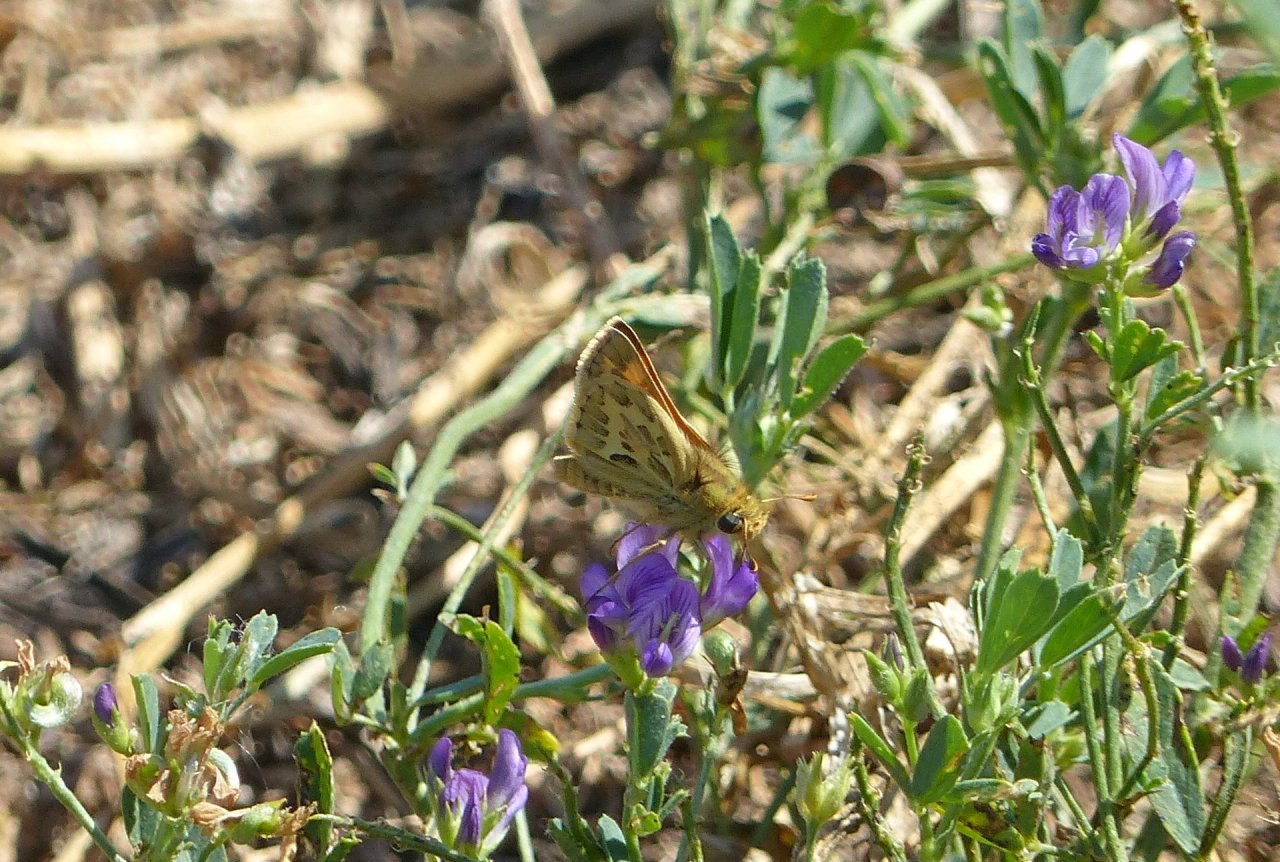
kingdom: Animalia
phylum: Arthropoda
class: Insecta
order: Lepidoptera
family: Hesperiidae
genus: Polites
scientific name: Polites sabuleti
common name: Sandhill Skipper
